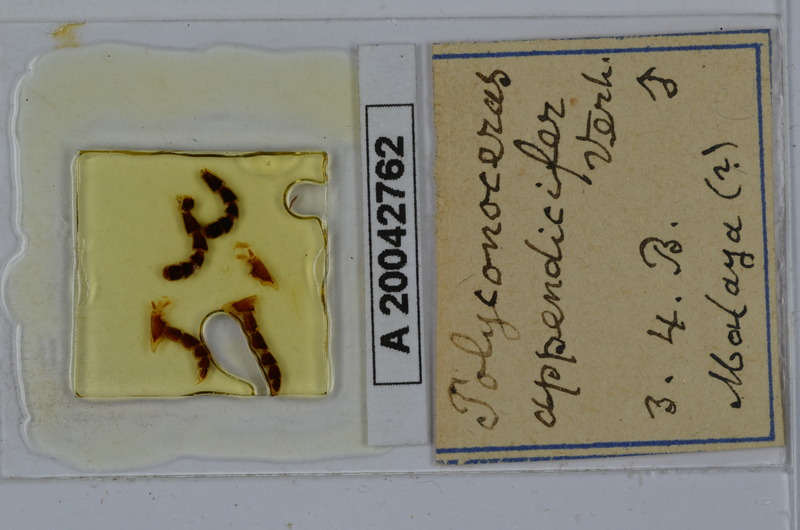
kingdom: Animalia
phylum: Arthropoda
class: Diplopoda
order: Spirobolida
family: Rhinocricidae
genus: Salpidobolus
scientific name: Salpidobolus
